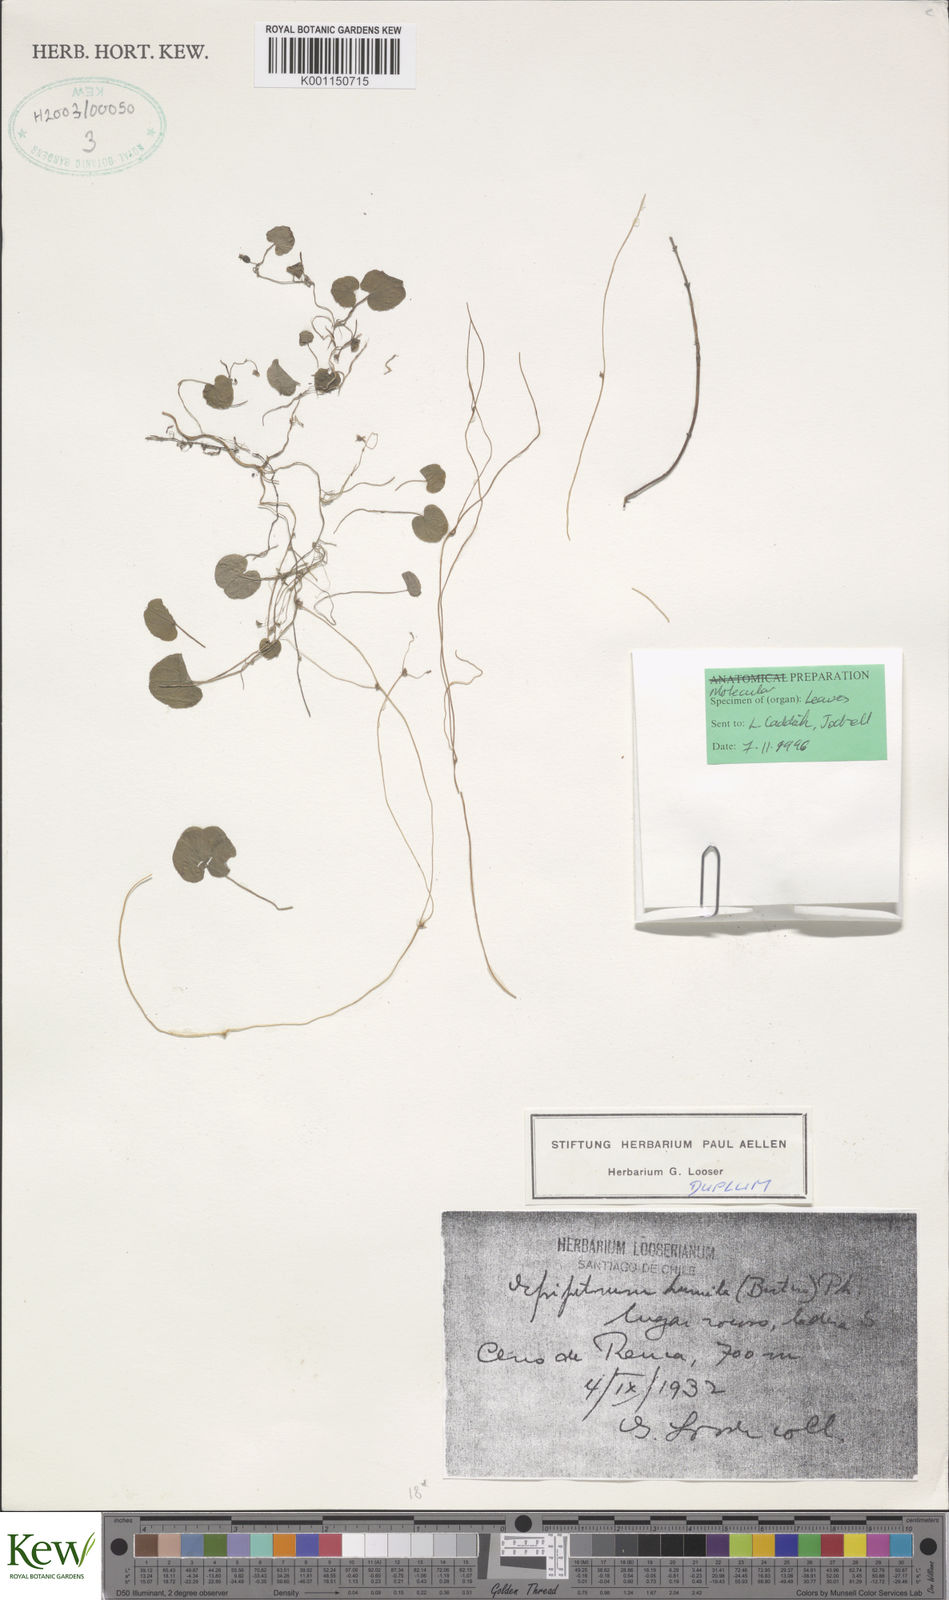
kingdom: Plantae
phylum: Tracheophyta
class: Liliopsida
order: Dioscoreales
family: Dioscoreaceae
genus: Dioscorea
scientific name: Dioscorea humilis
